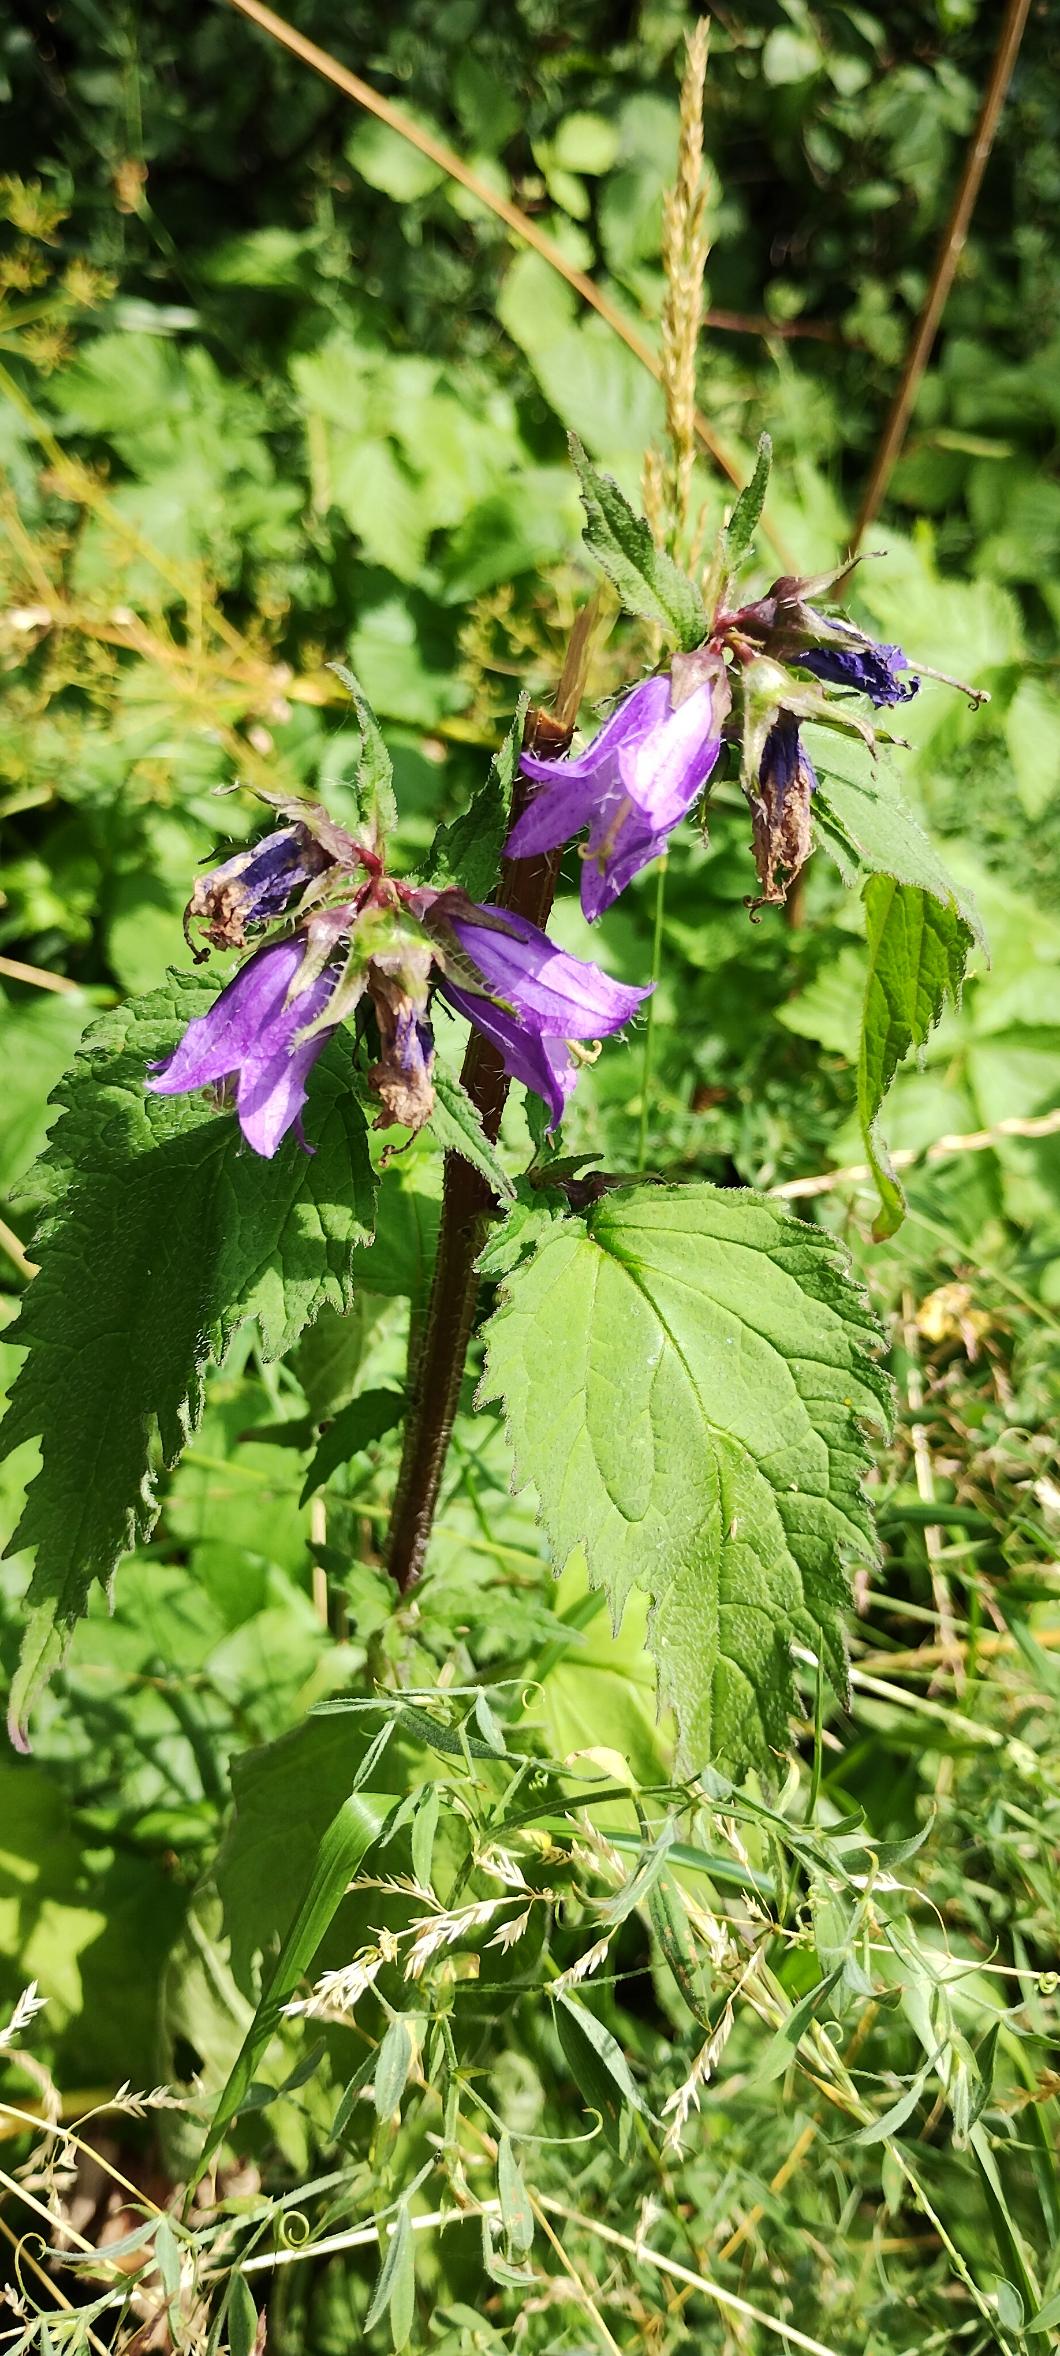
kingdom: Plantae
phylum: Tracheophyta
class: Magnoliopsida
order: Asterales
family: Campanulaceae
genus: Campanula
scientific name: Campanula trachelium
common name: Nælde-klokke
